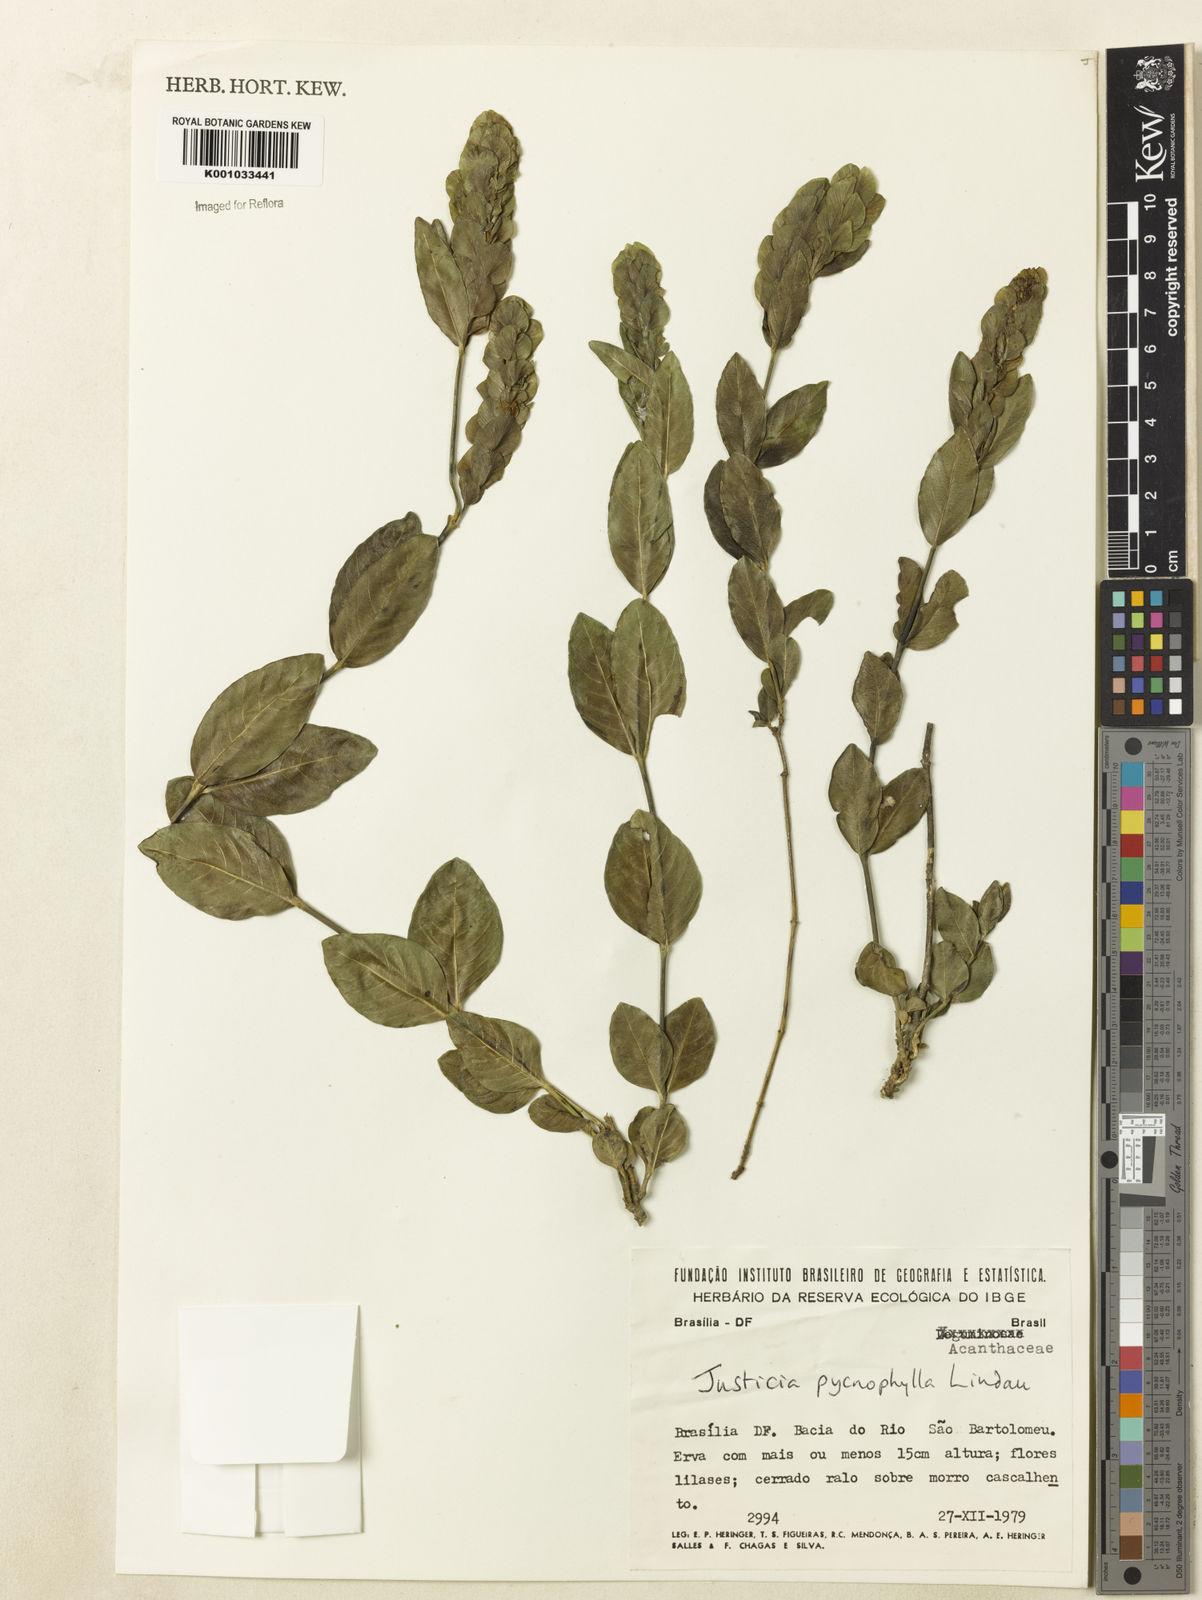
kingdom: Plantae
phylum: Tracheophyta
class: Magnoliopsida
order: Lamiales
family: Acanthaceae
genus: Justicia
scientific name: Justicia pycnophylla
